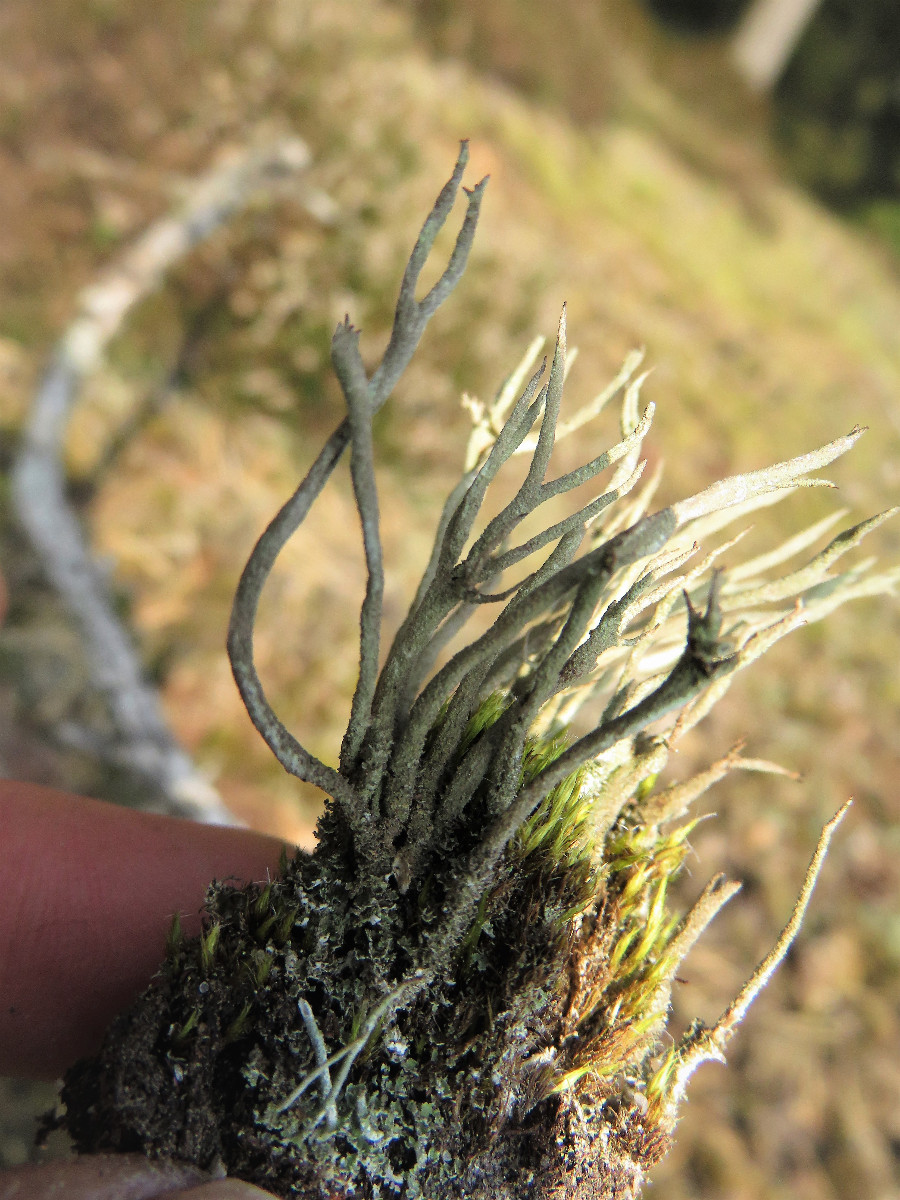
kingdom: Fungi
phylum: Ascomycota
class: Lecanoromycetes
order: Lecanorales
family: Cladoniaceae
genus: Cladonia
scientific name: Cladonia glauca
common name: grågrøn bægerlav
